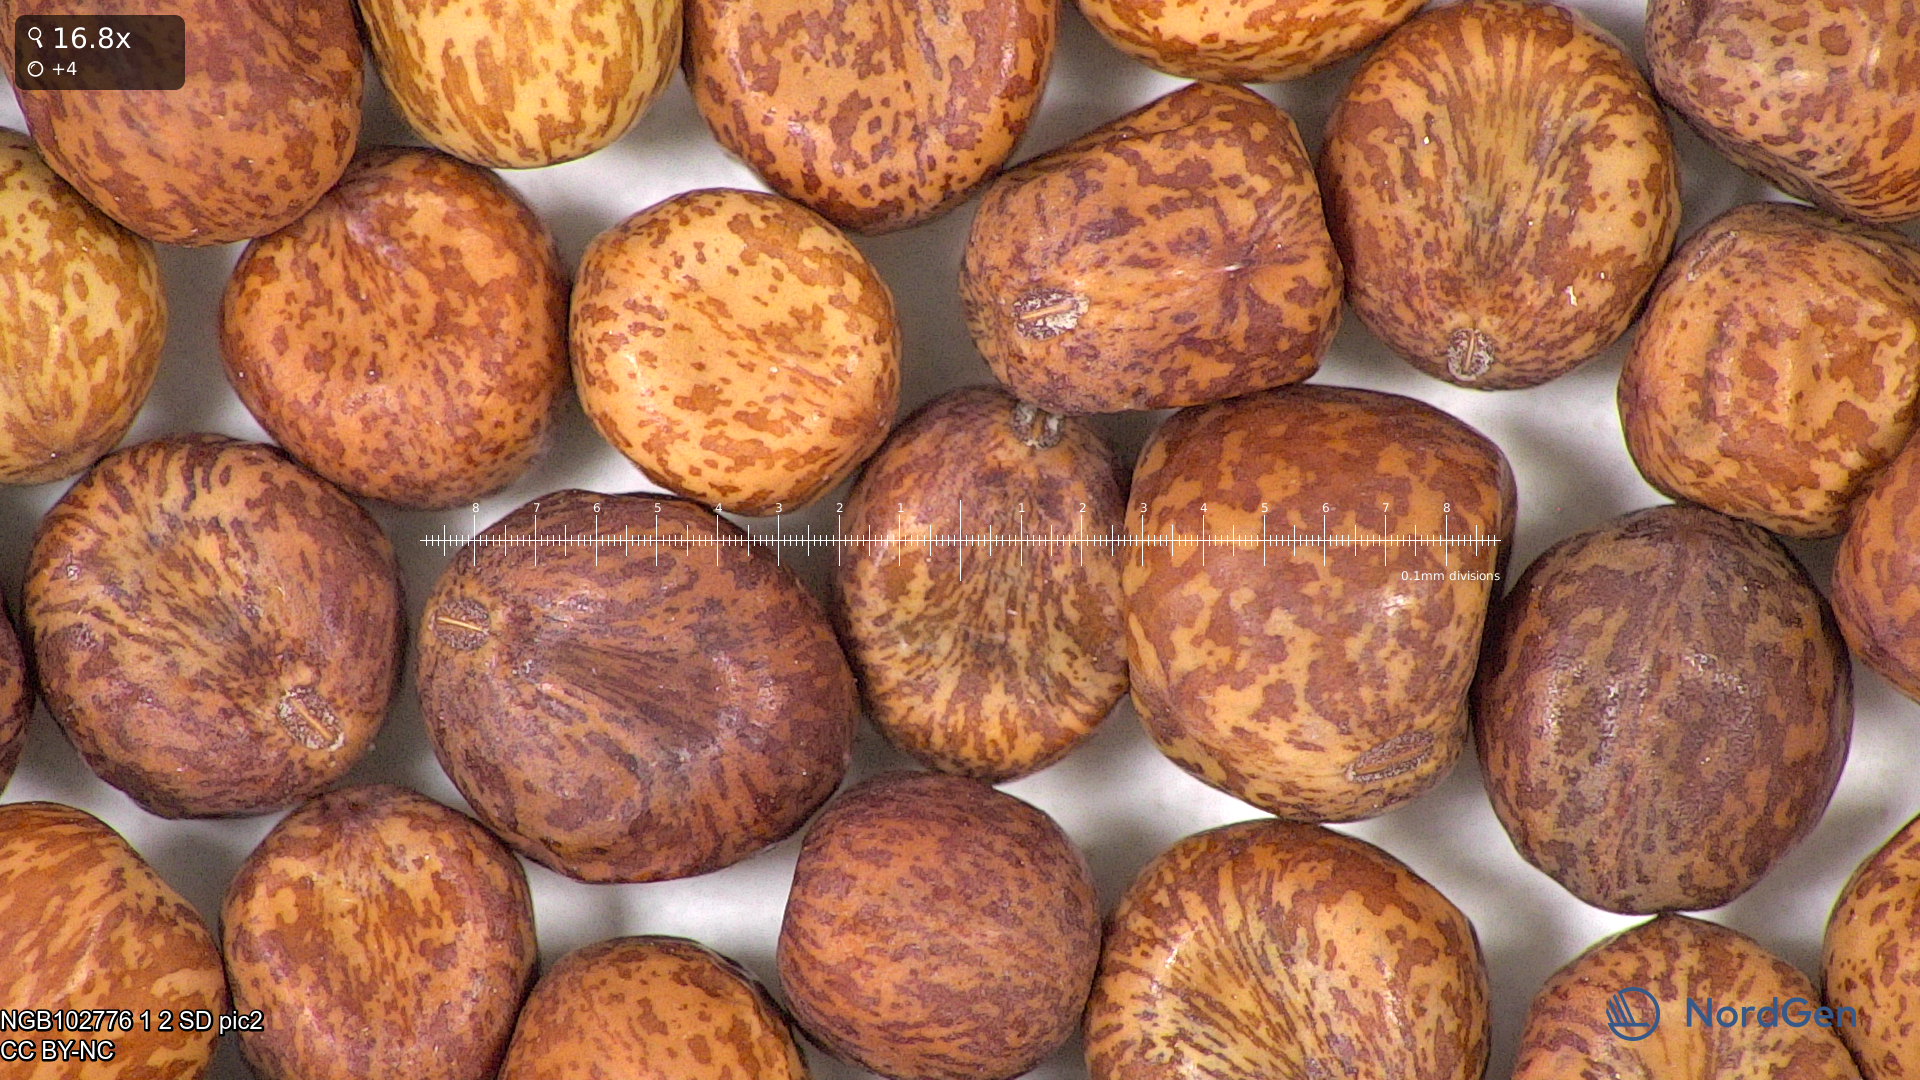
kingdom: Plantae
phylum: Tracheophyta
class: Magnoliopsida
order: Fabales
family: Fabaceae
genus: Lathyrus
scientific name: Lathyrus oleraceus
